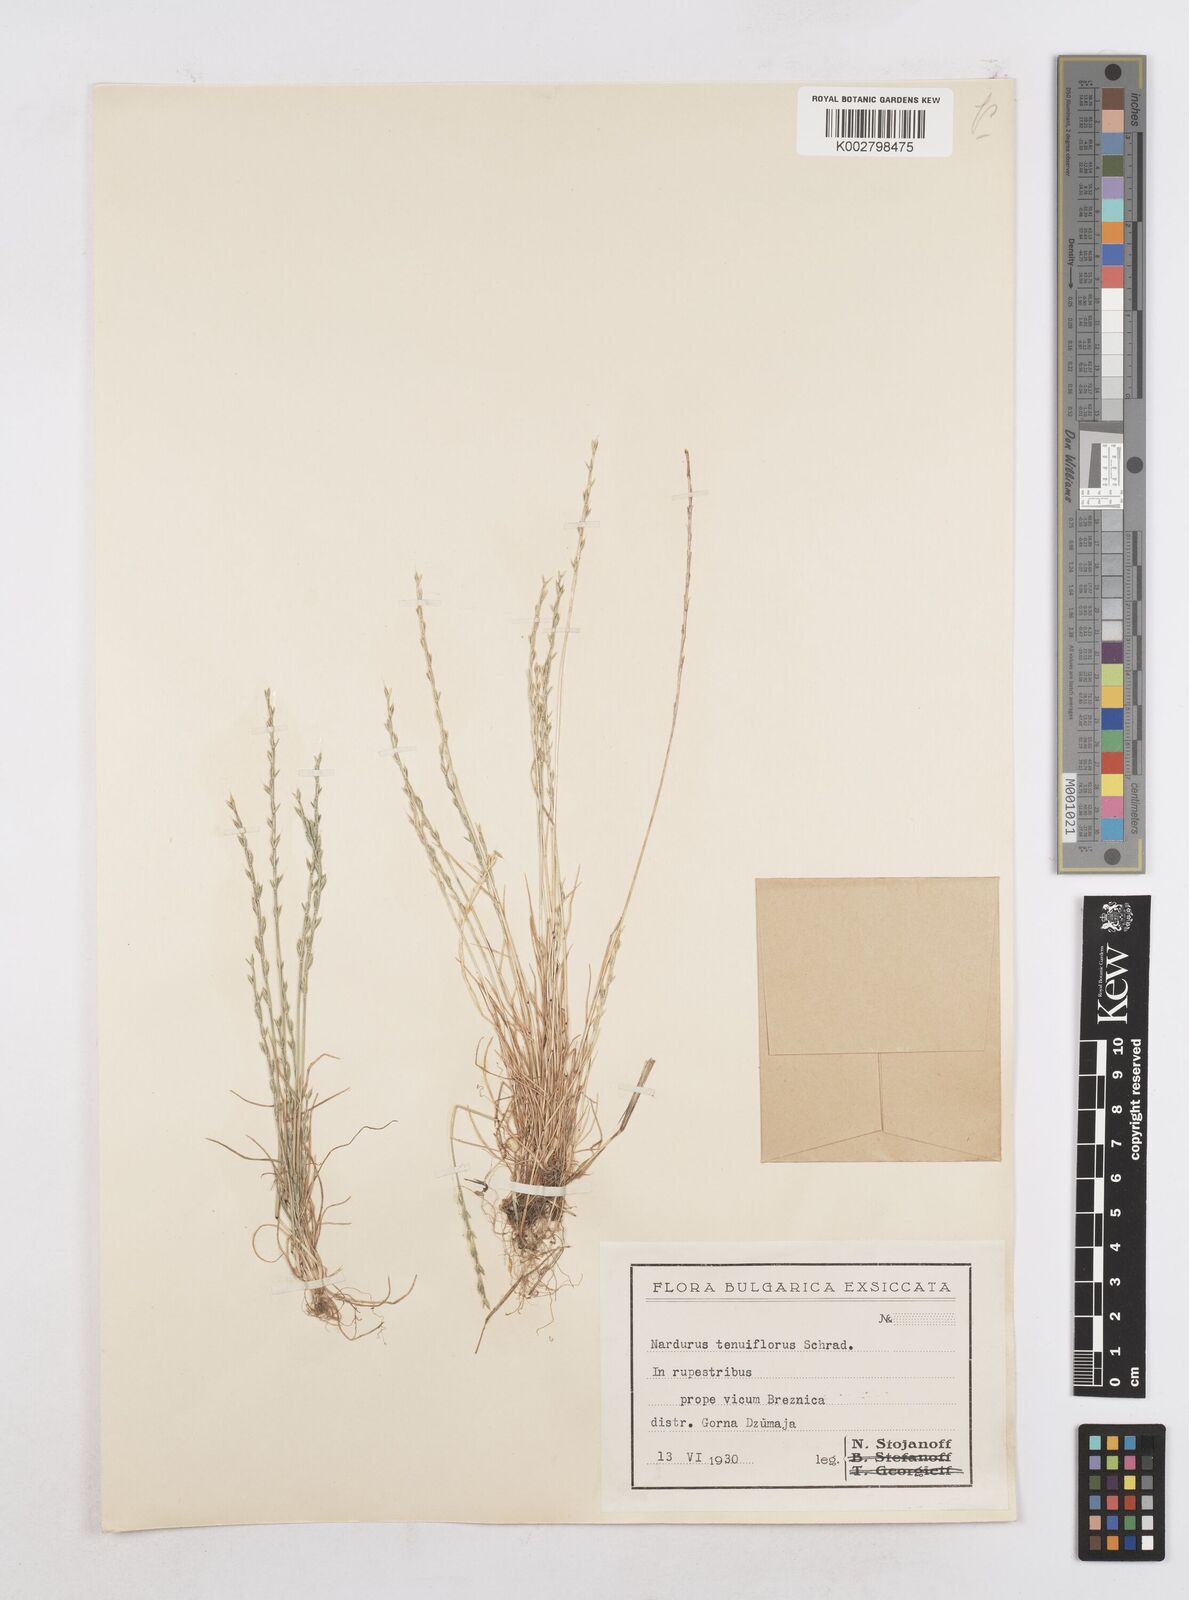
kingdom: Plantae
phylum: Tracheophyta
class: Liliopsida
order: Poales
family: Poaceae
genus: Festuca
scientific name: Festuca lachenalii
